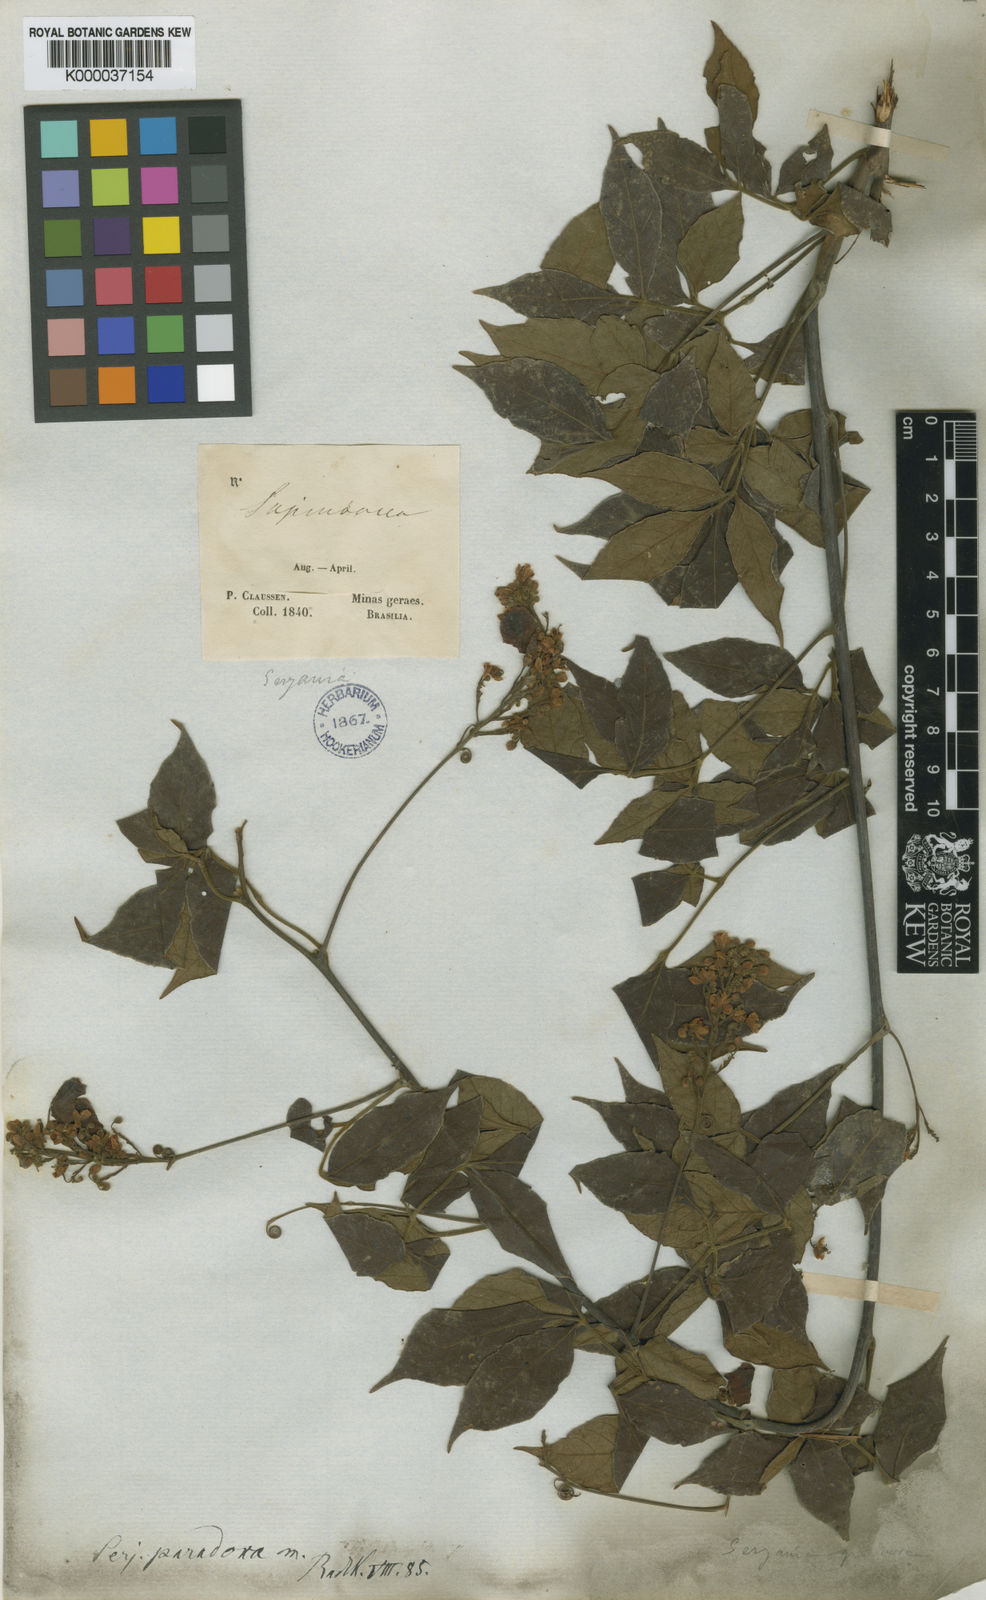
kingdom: Plantae
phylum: Tracheophyta
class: Magnoliopsida
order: Sapindales
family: Sapindaceae
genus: Serjania
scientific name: Serjania paradoxa
